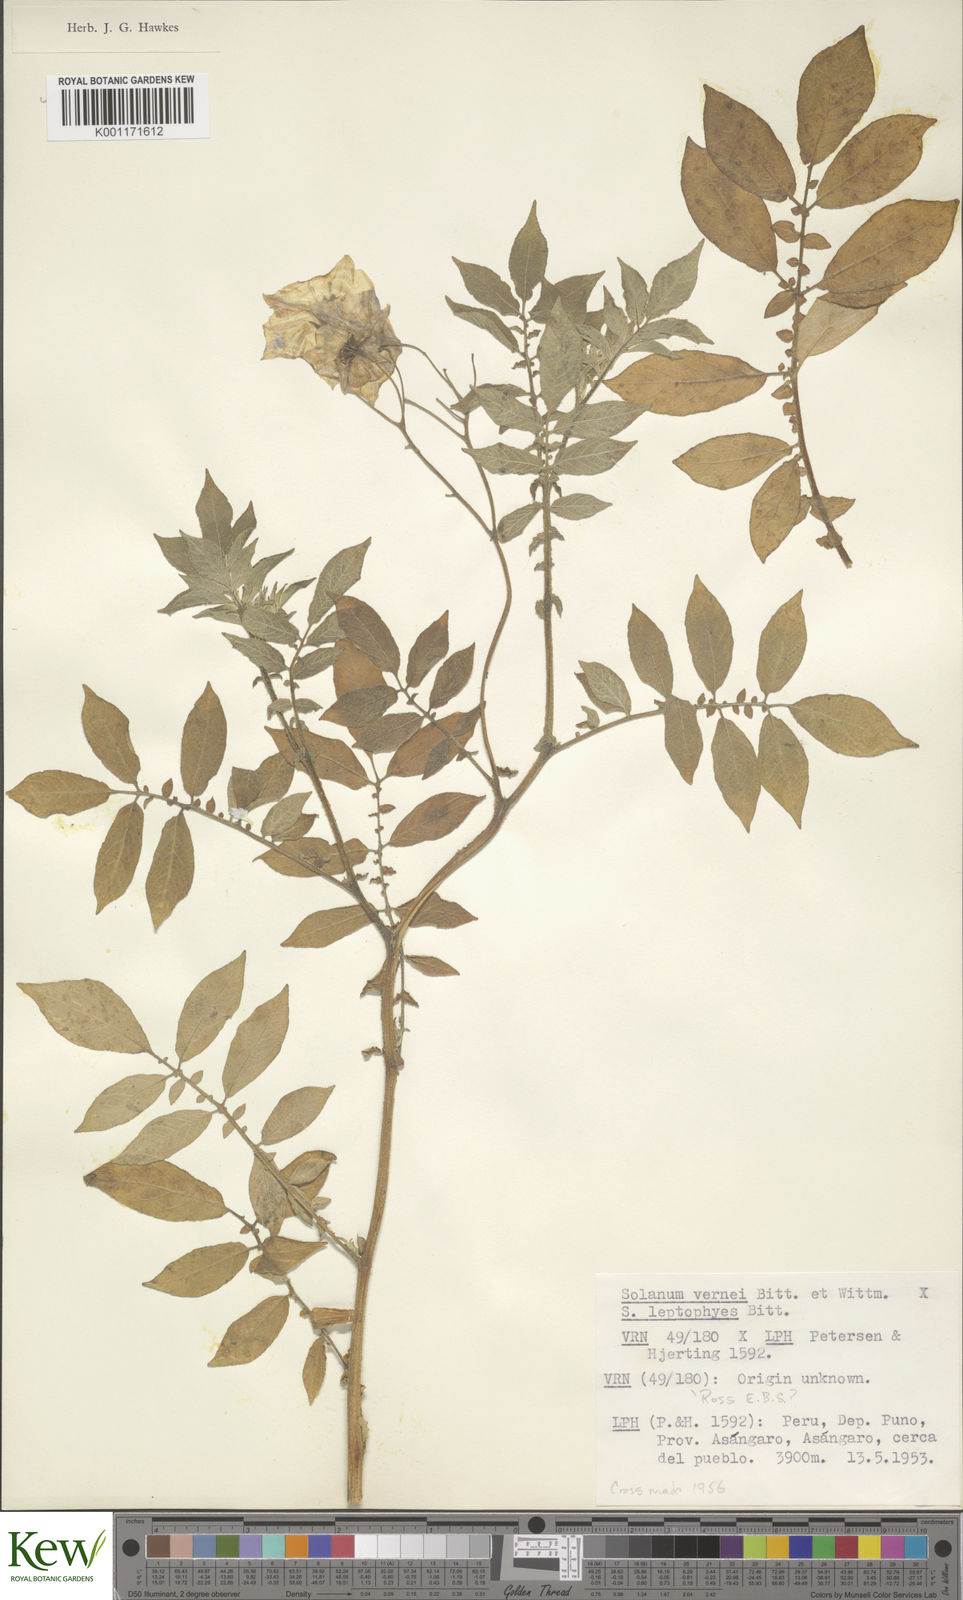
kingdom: Plantae
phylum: Tracheophyta
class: Magnoliopsida
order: Solanales
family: Solanaceae
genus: Solanum
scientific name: Solanum vernei
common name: Purple potato
